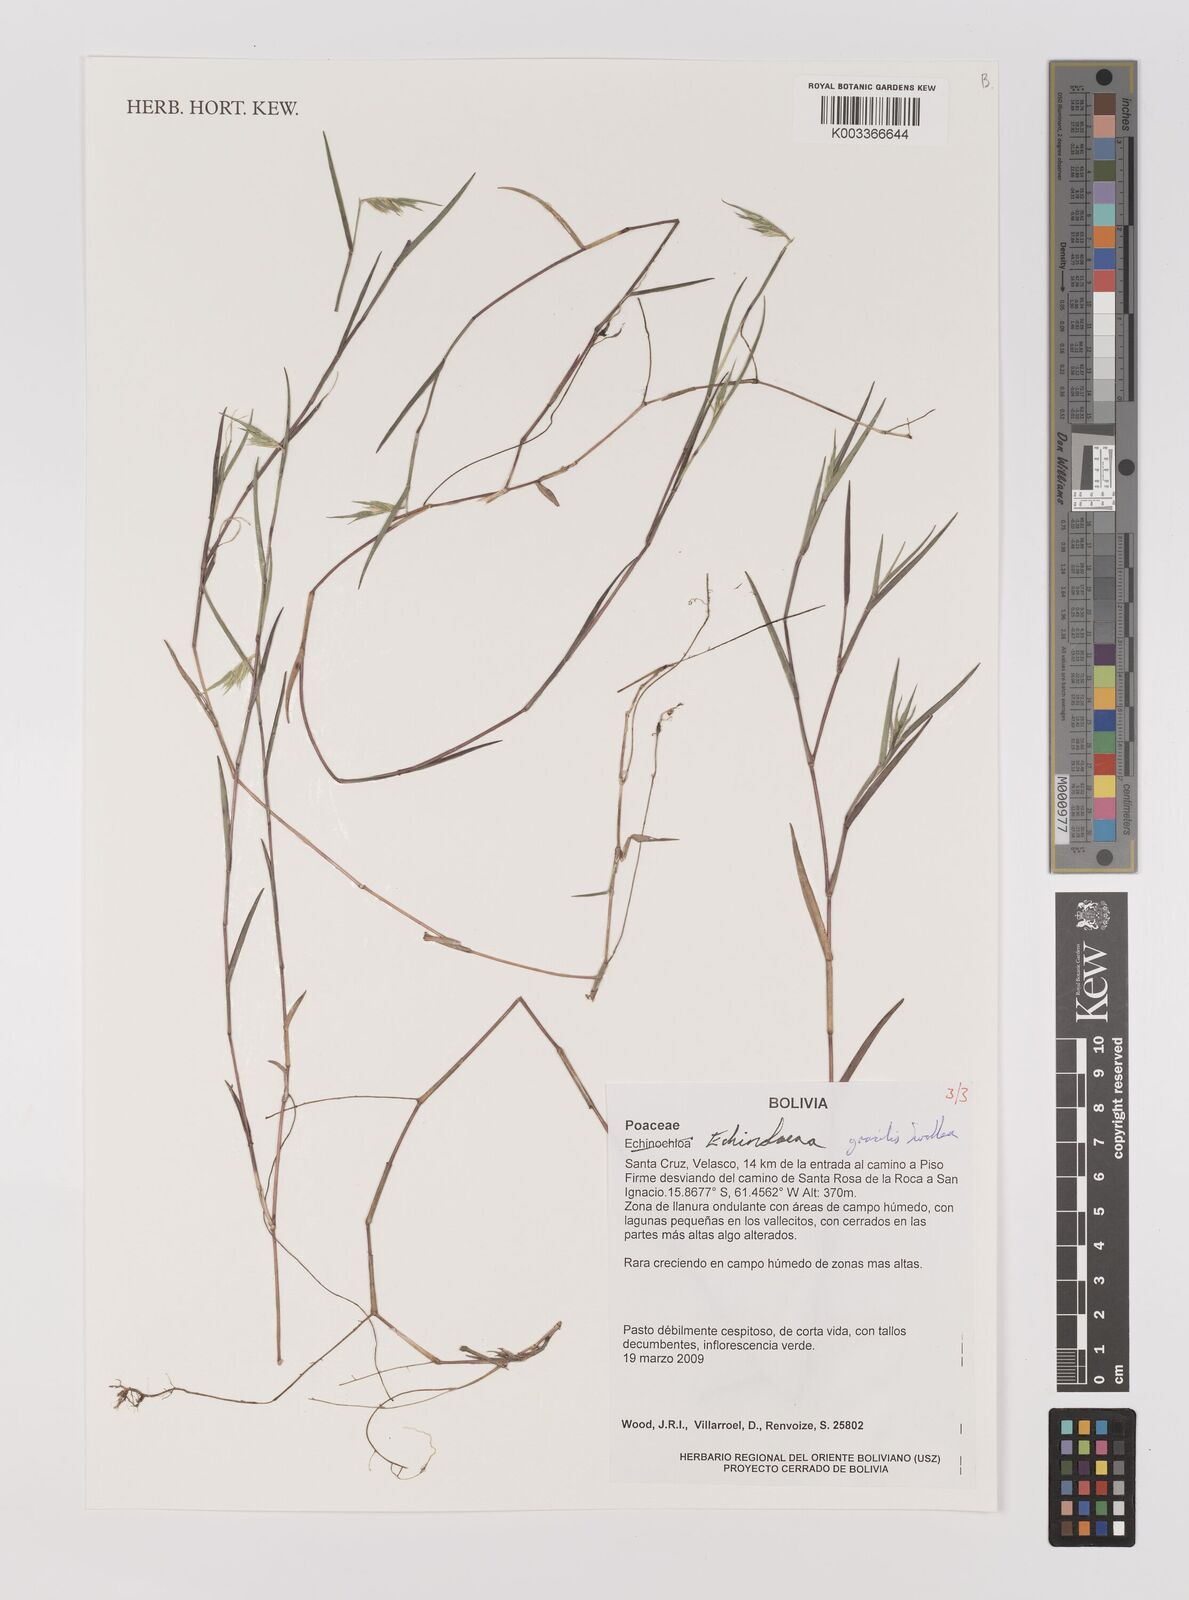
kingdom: Plantae
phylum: Tracheophyta
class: Liliopsida
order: Poales
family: Poaceae
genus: Echinolaena
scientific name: Echinolaena gracilis
